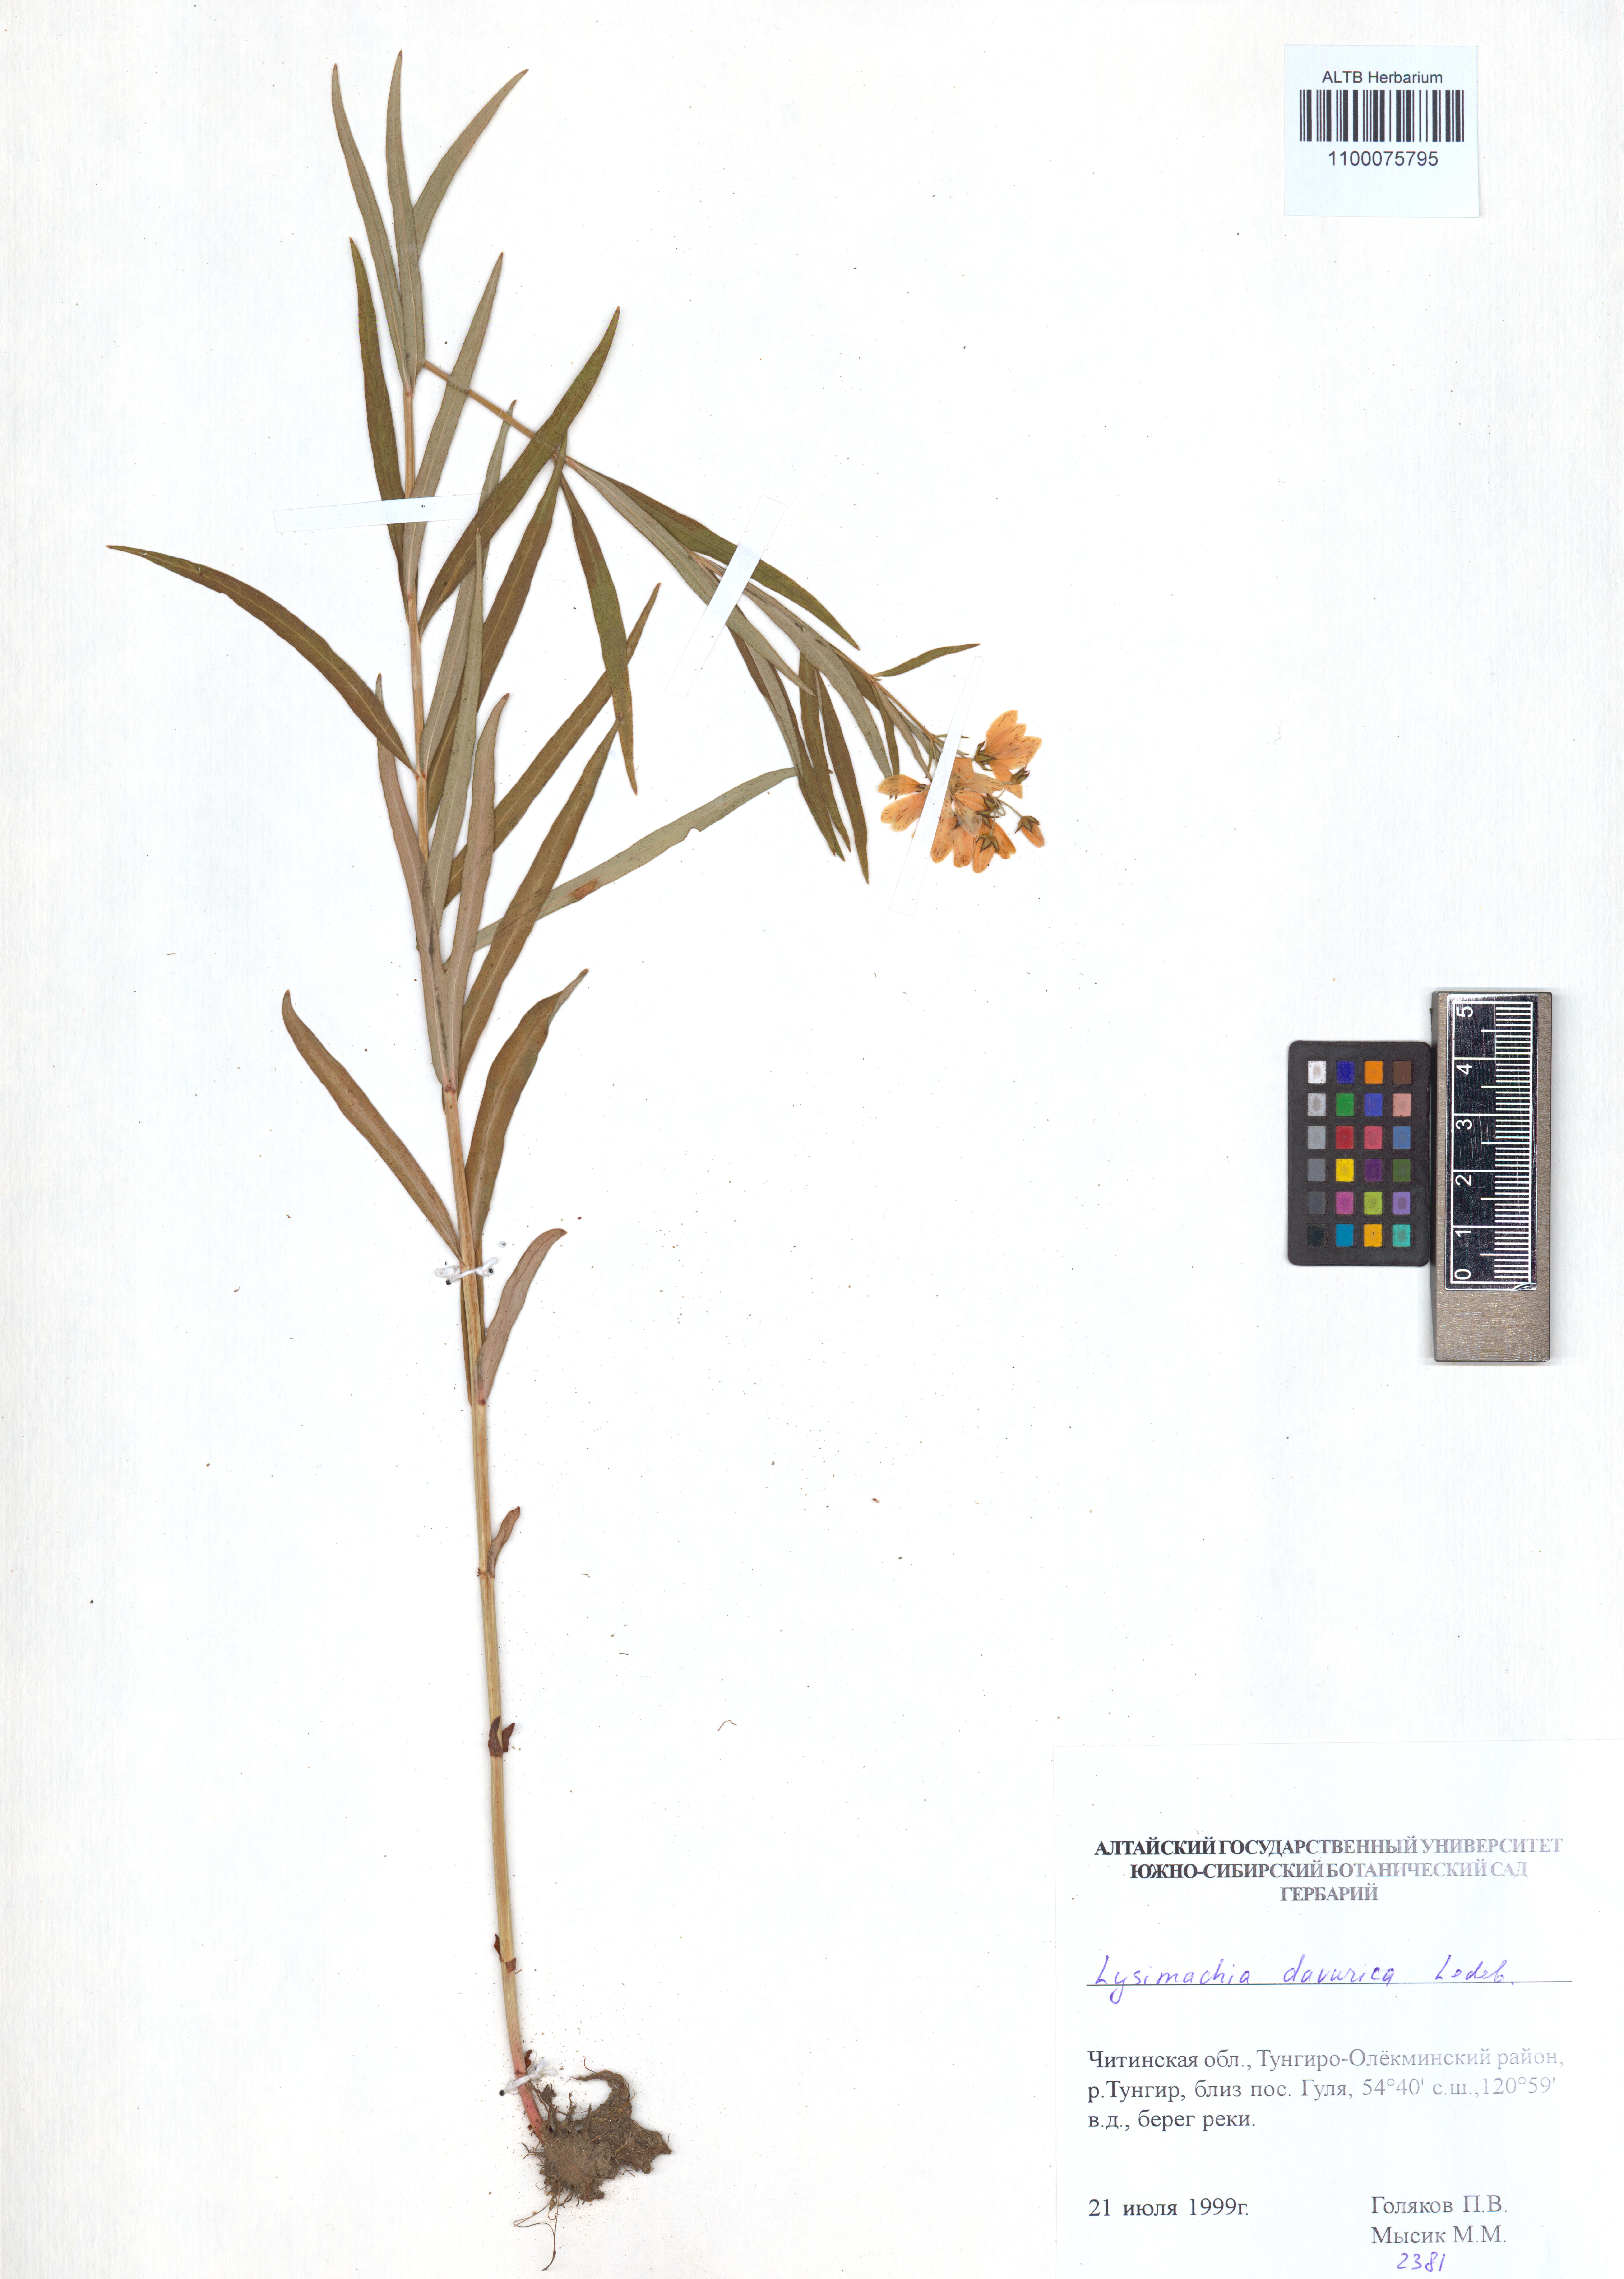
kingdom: Plantae
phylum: Tracheophyta
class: Magnoliopsida
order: Ericales
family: Primulaceae
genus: Lysimachia
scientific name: Lysimachia davurica
